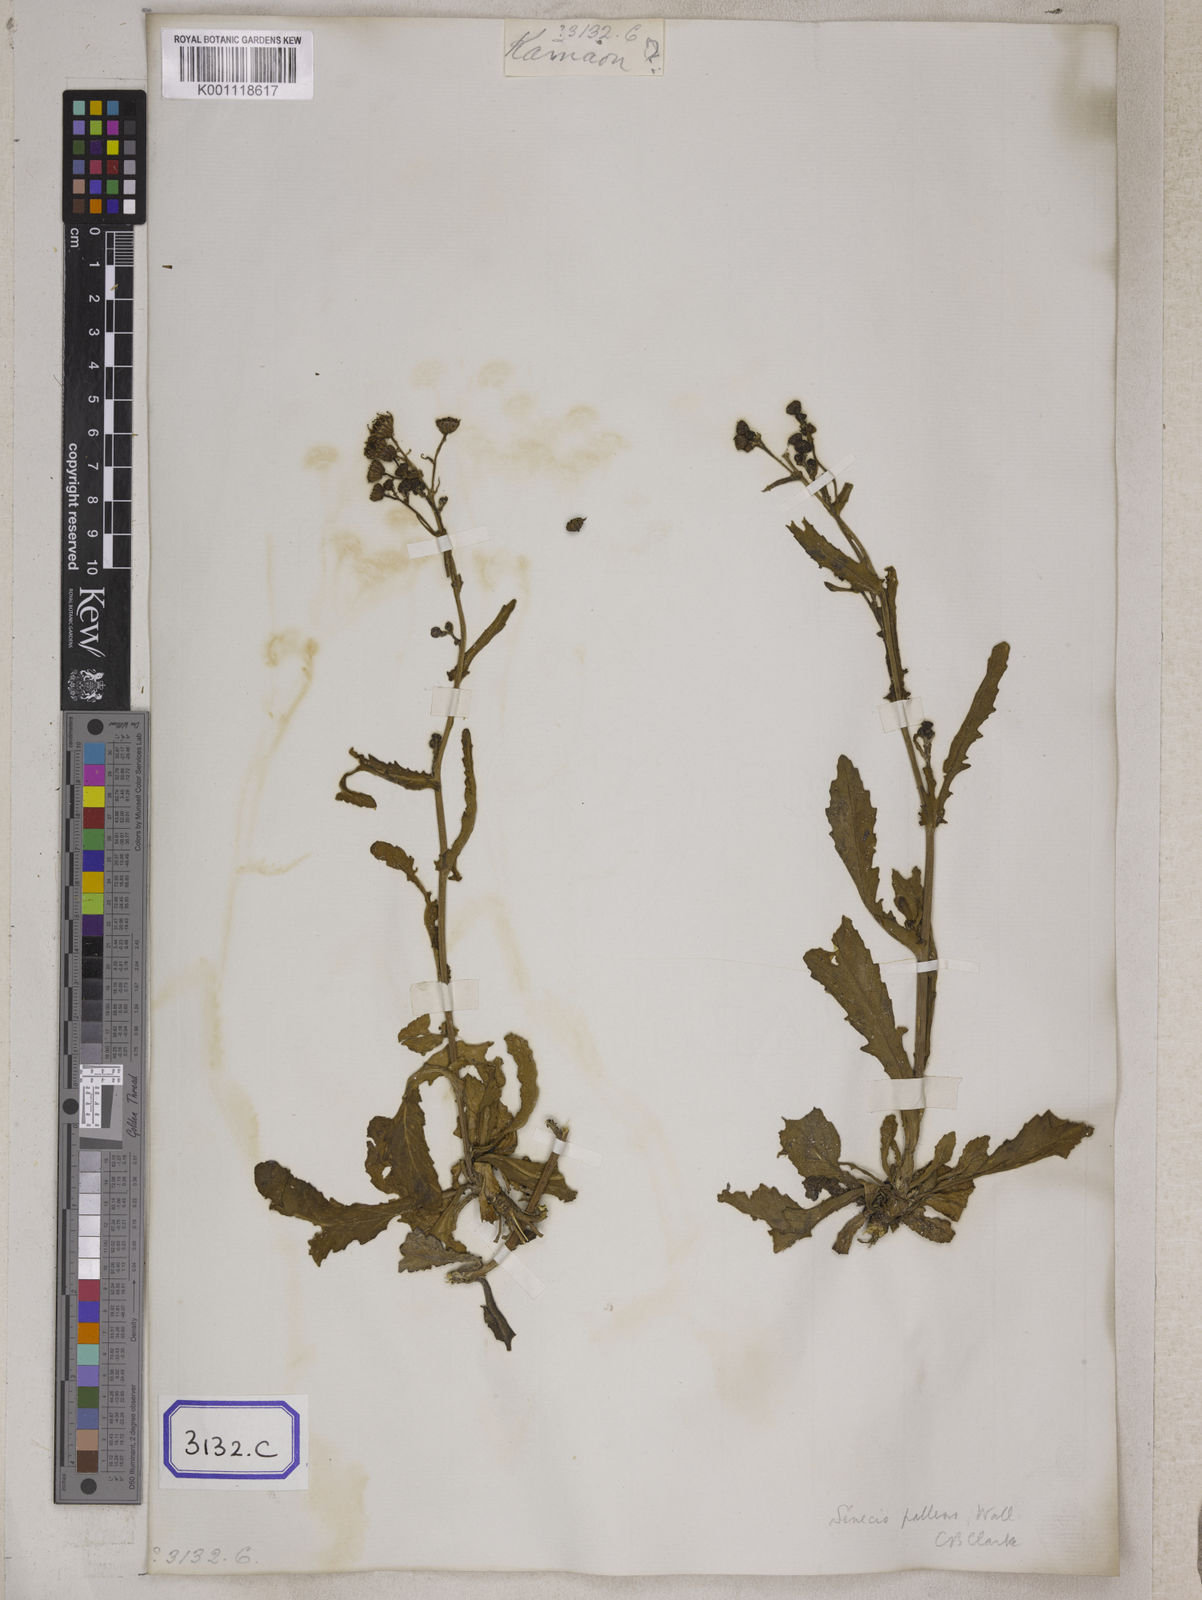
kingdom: Plantae
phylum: Tracheophyta
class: Magnoliopsida
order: Asterales
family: Asteraceae
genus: Senecio
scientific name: Senecio pallens
